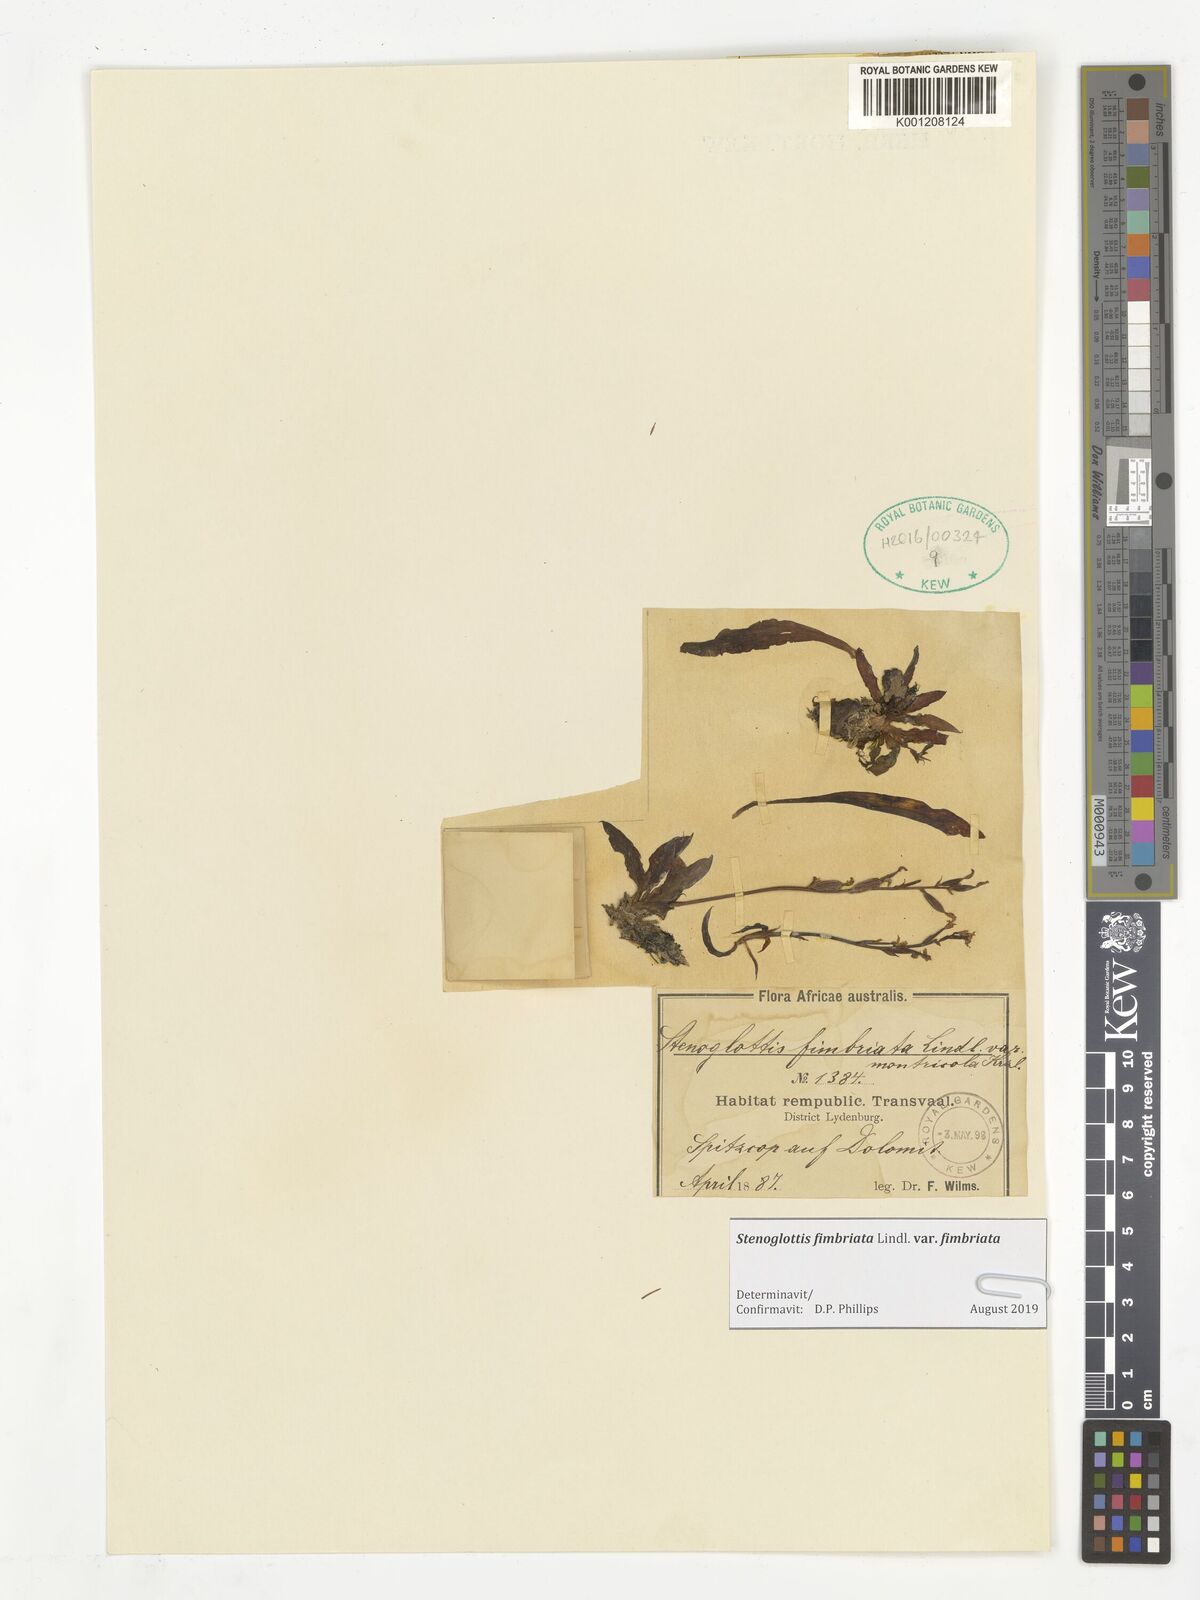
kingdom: Plantae
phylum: Tracheophyta
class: Liliopsida
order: Asparagales
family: Orchidaceae
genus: Stenoglottis
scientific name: Stenoglottis fimbriata
